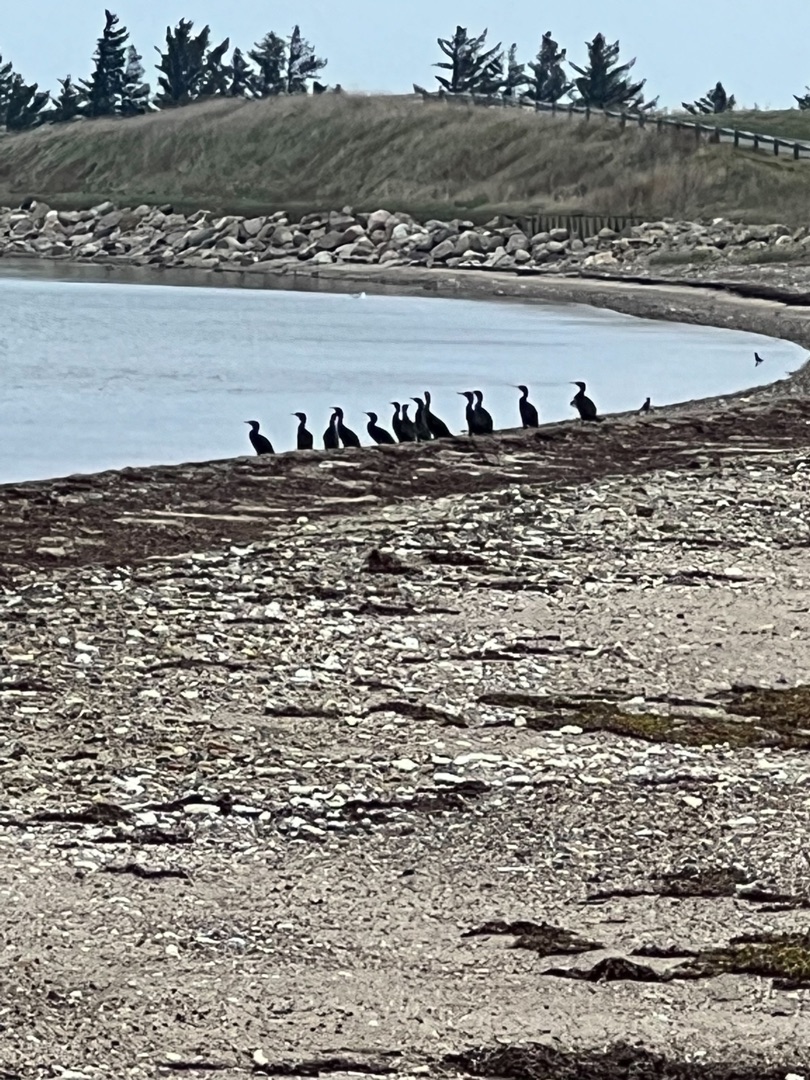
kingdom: Animalia
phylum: Chordata
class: Aves
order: Suliformes
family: Phalacrocoracidae
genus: Phalacrocorax
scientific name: Phalacrocorax carbo
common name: Skarv
